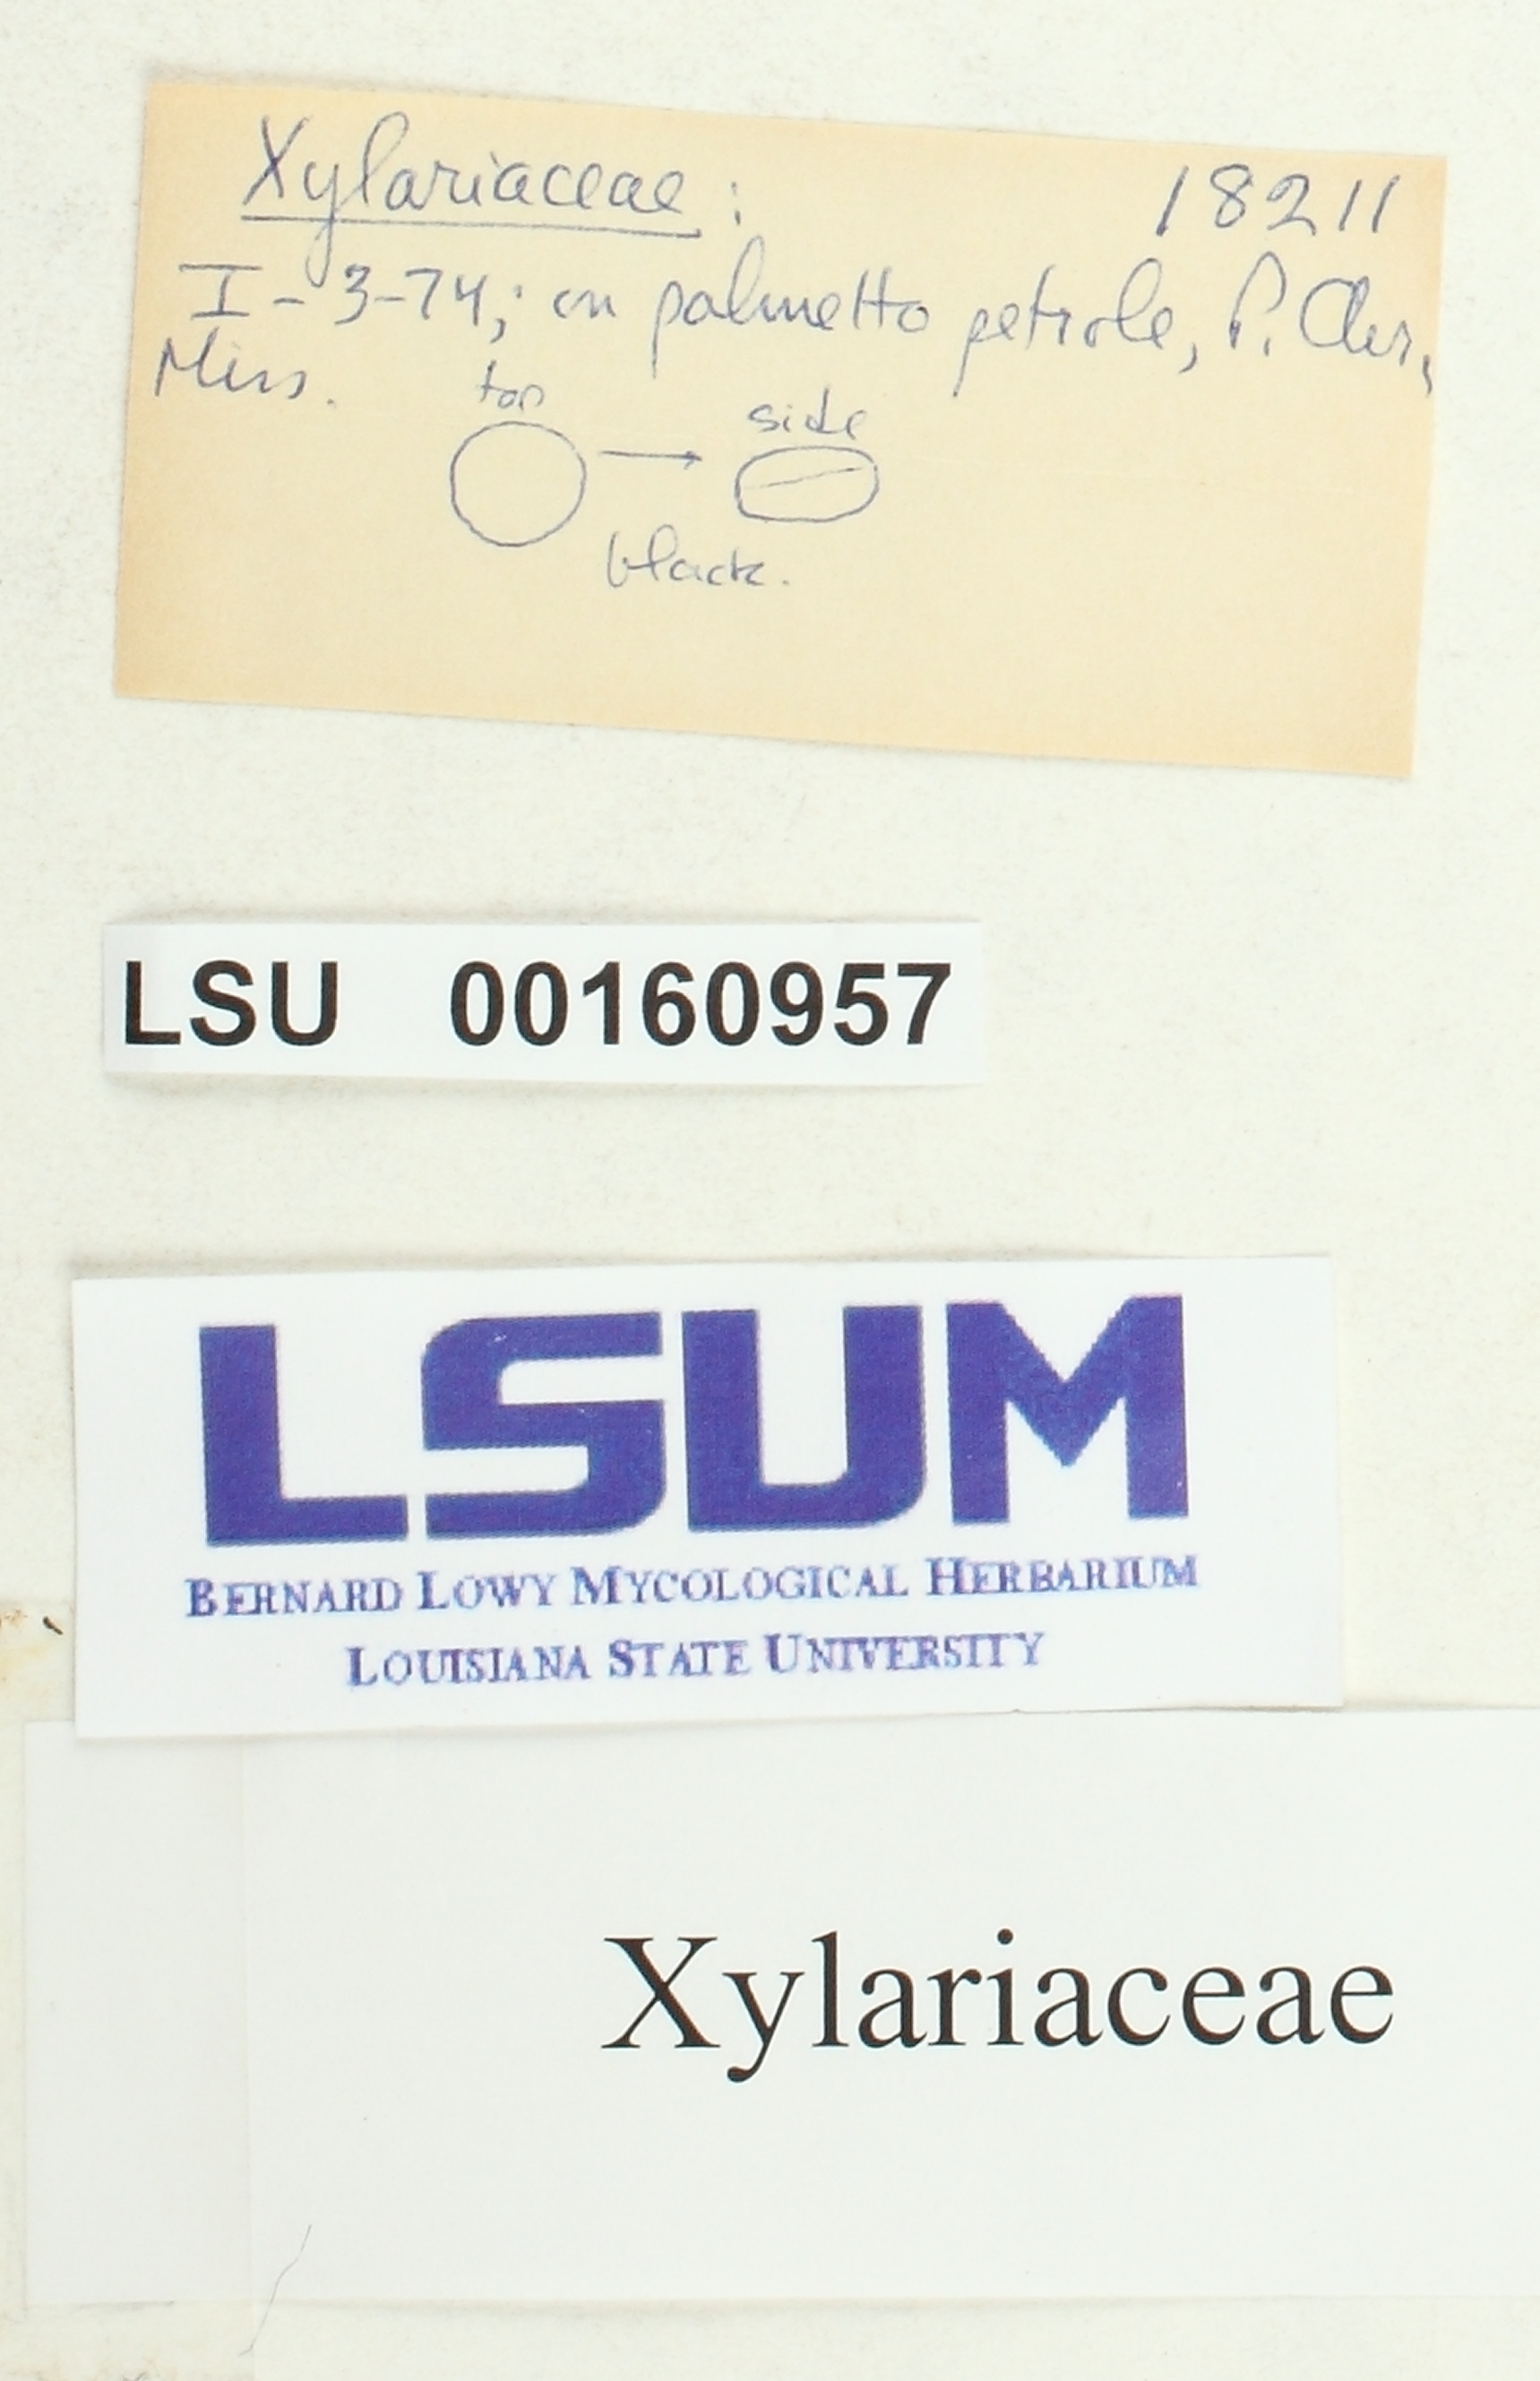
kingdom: Fungi
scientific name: Fungi
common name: Fungi
